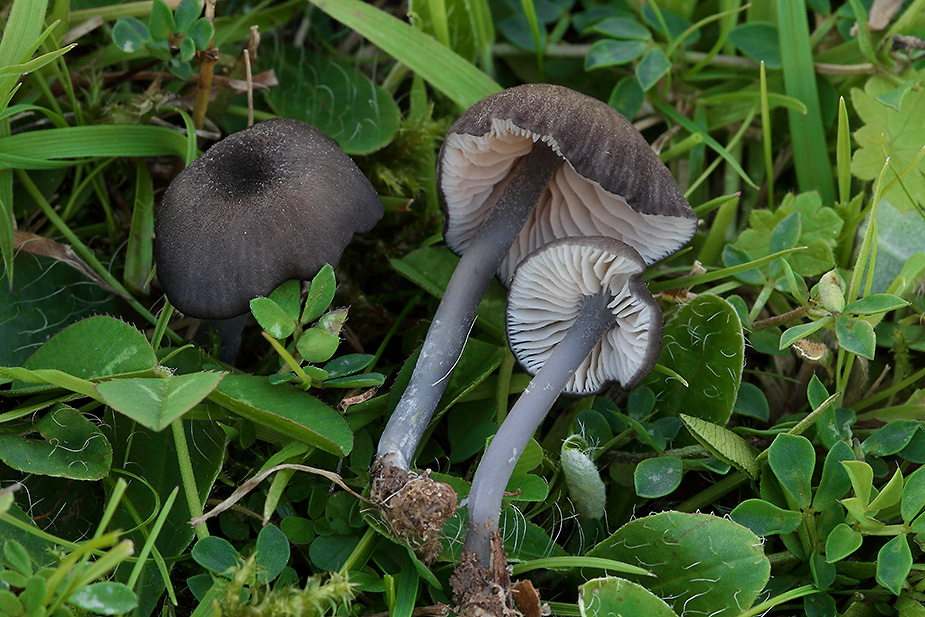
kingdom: Fungi
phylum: Basidiomycota
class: Agaricomycetes
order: Agaricales
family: Entolomataceae
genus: Entoloma
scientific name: Entoloma allospermum
